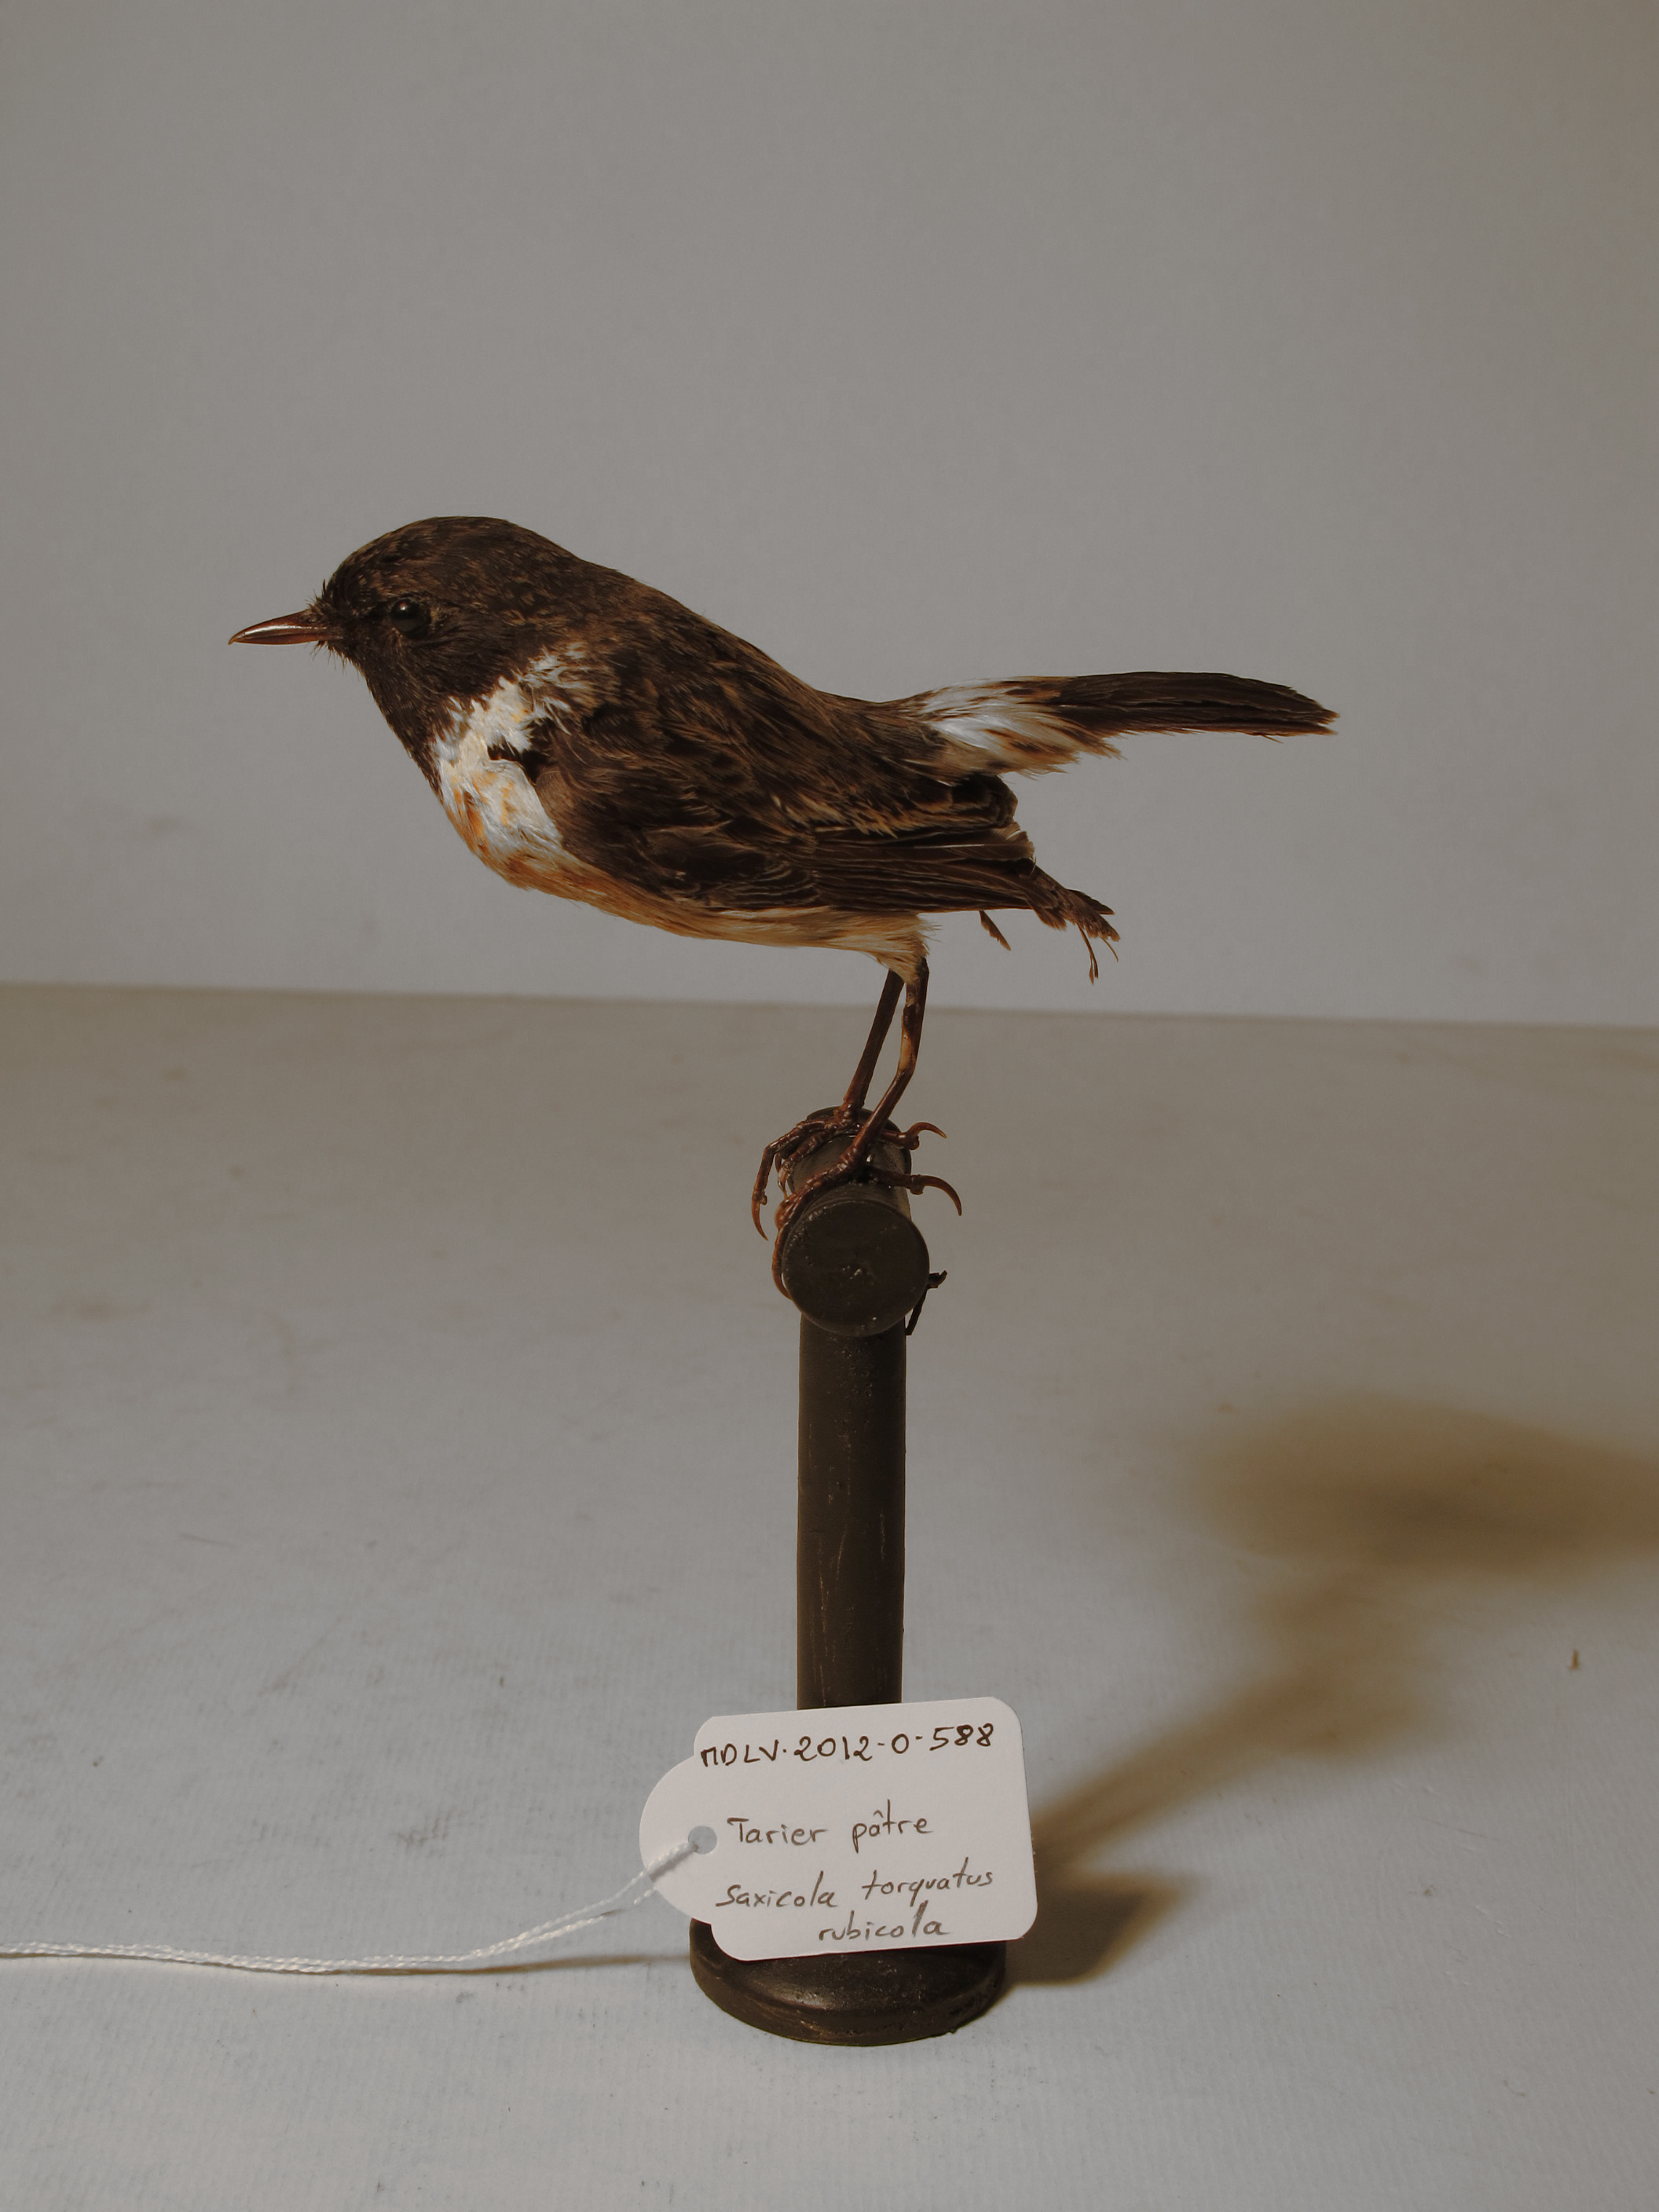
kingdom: Animalia
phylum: Chordata
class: Aves
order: Passeriformes
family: Muscicapidae
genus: Saxicola
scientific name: Saxicola rubicola
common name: Common Stonechat
